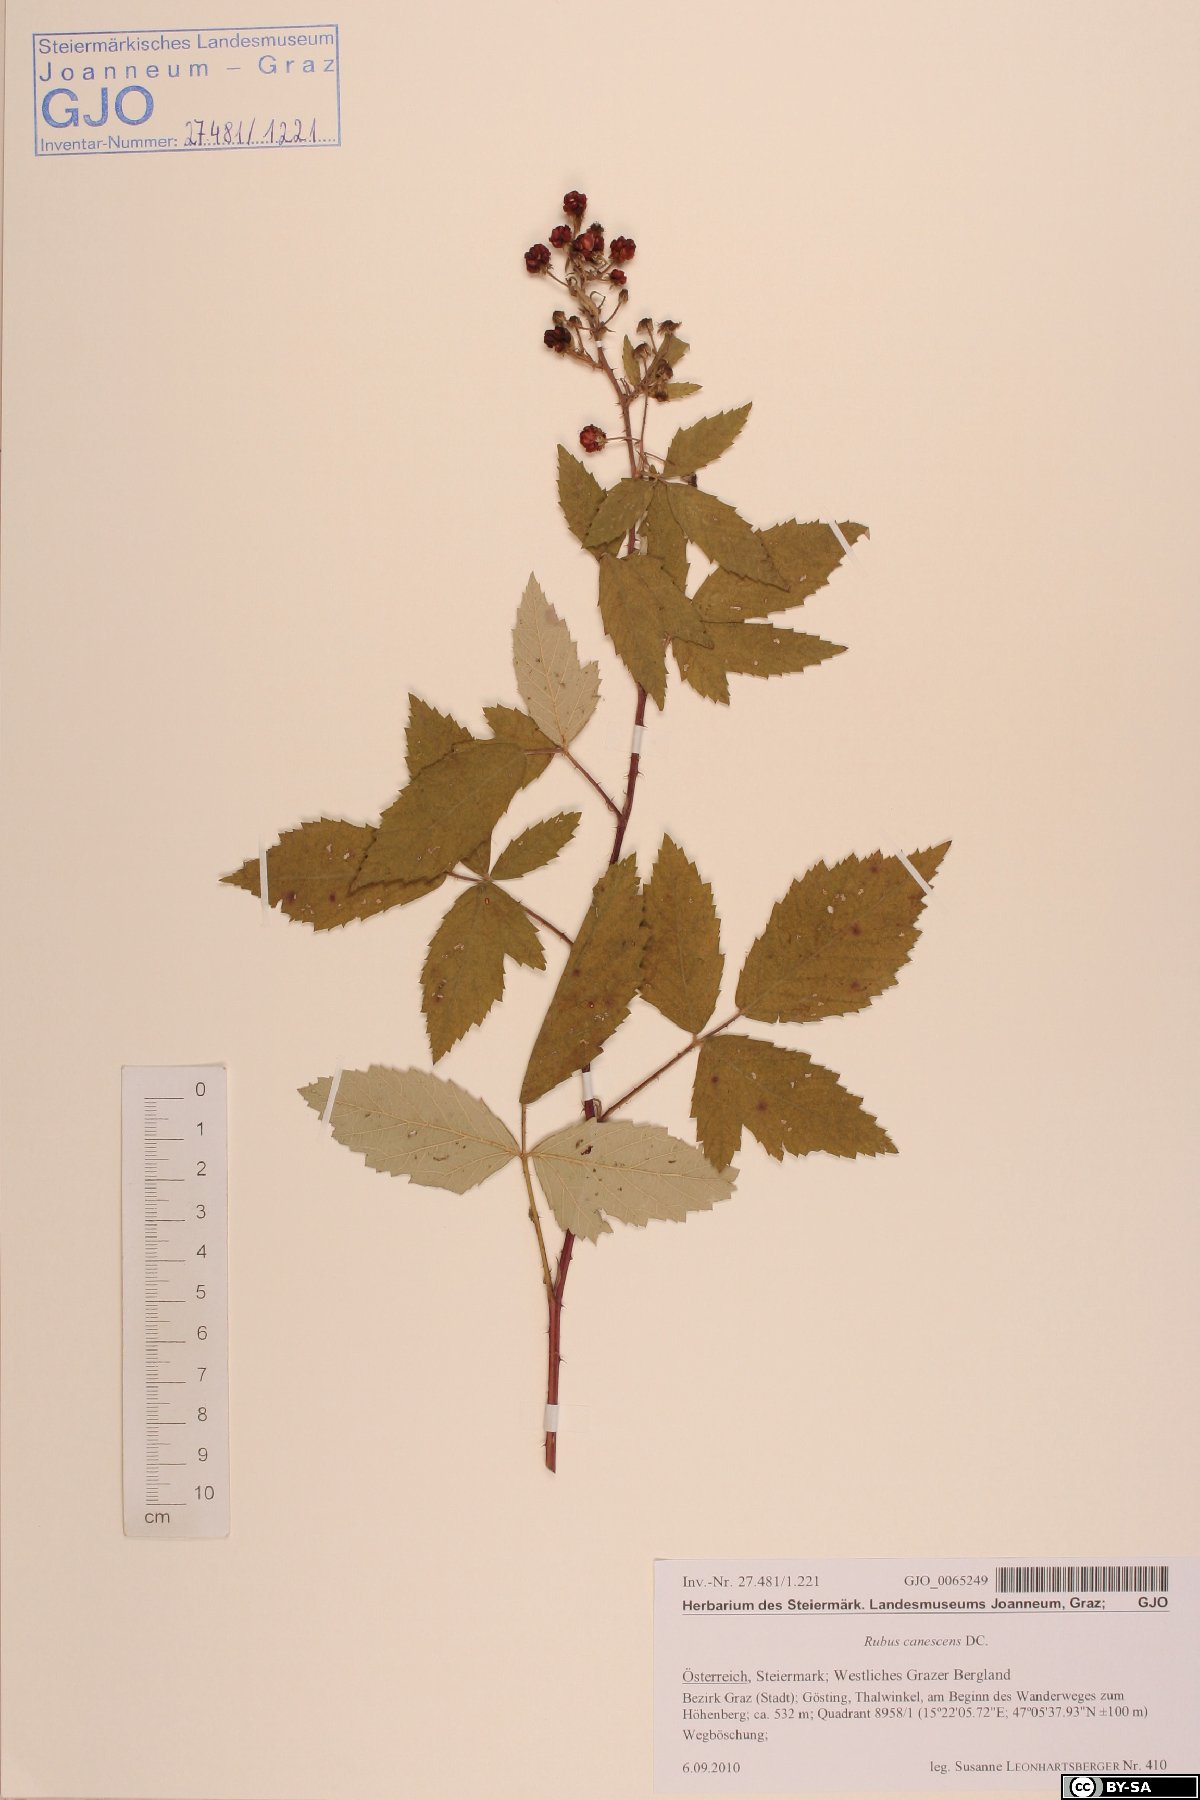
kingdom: Plantae
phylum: Tracheophyta
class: Magnoliopsida
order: Rosales
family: Rosaceae
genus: Rubus
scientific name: Rubus canescens
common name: Wooly blackberry
